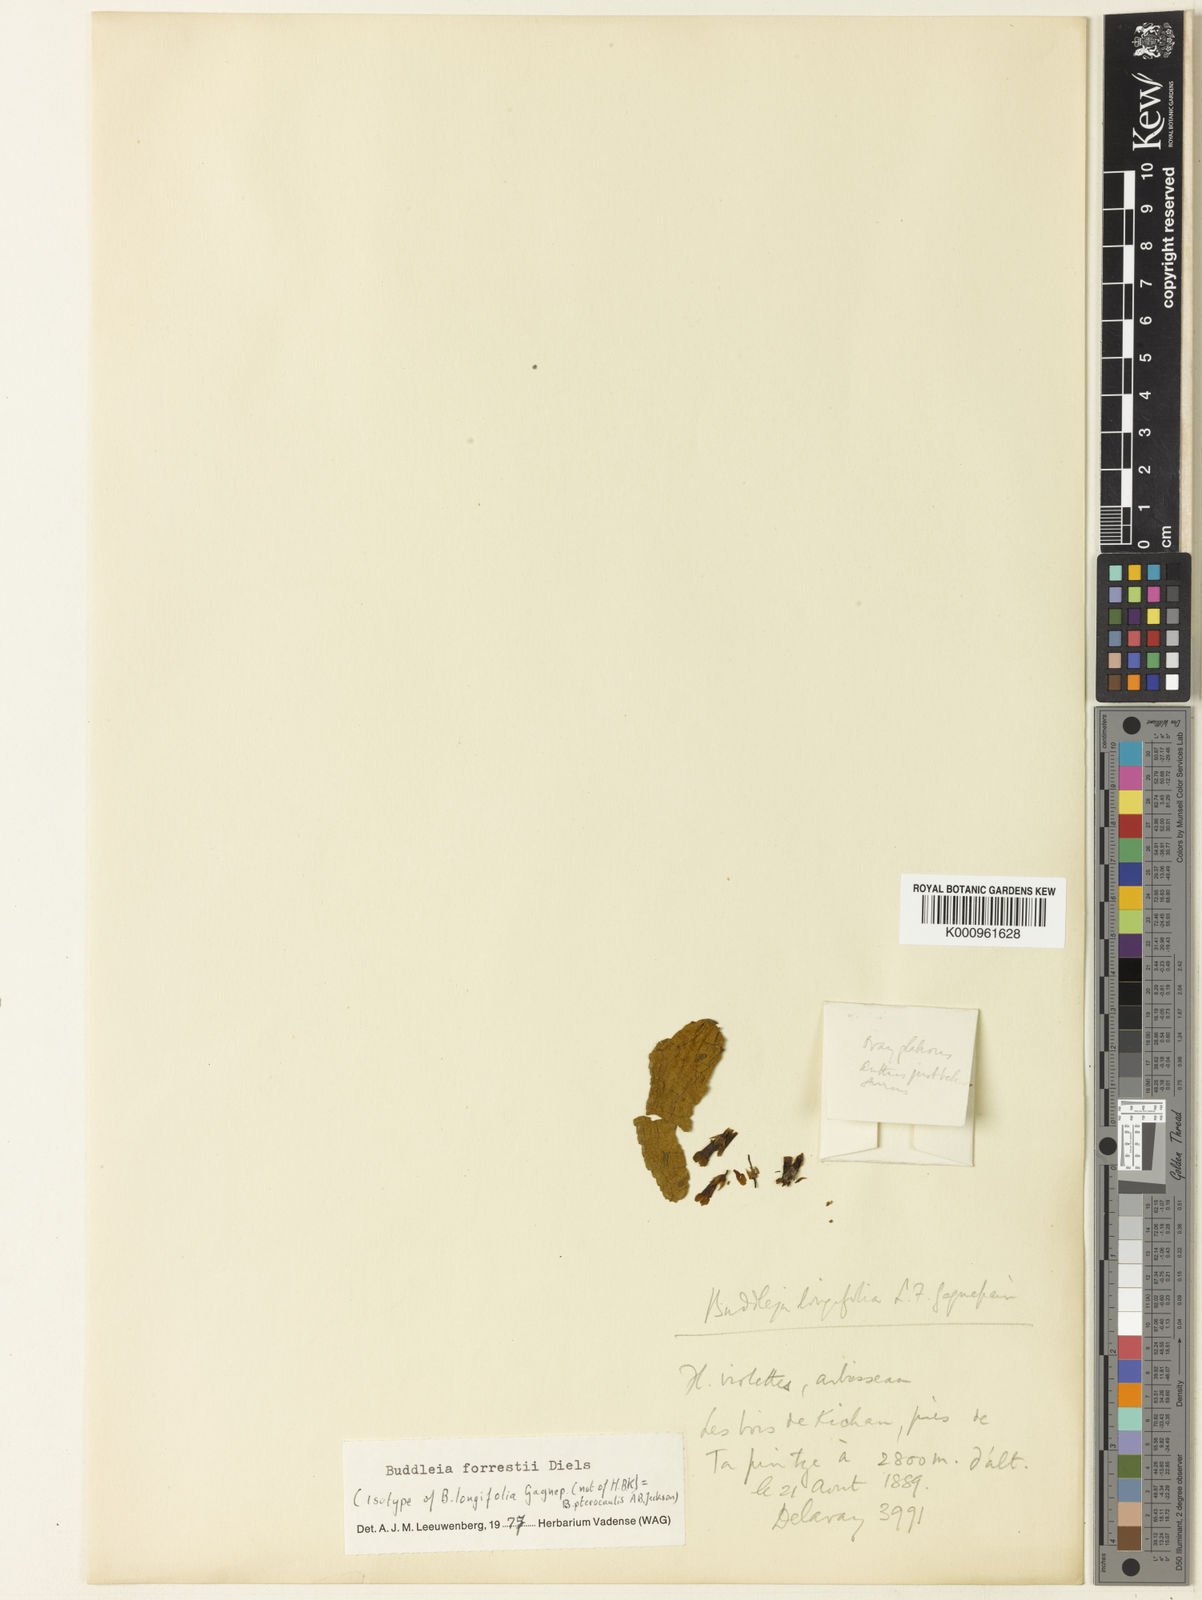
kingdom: Plantae
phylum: Tracheophyta
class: Magnoliopsida
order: Lamiales
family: Scrophulariaceae
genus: Buddleja
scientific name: Buddleja forrestii
